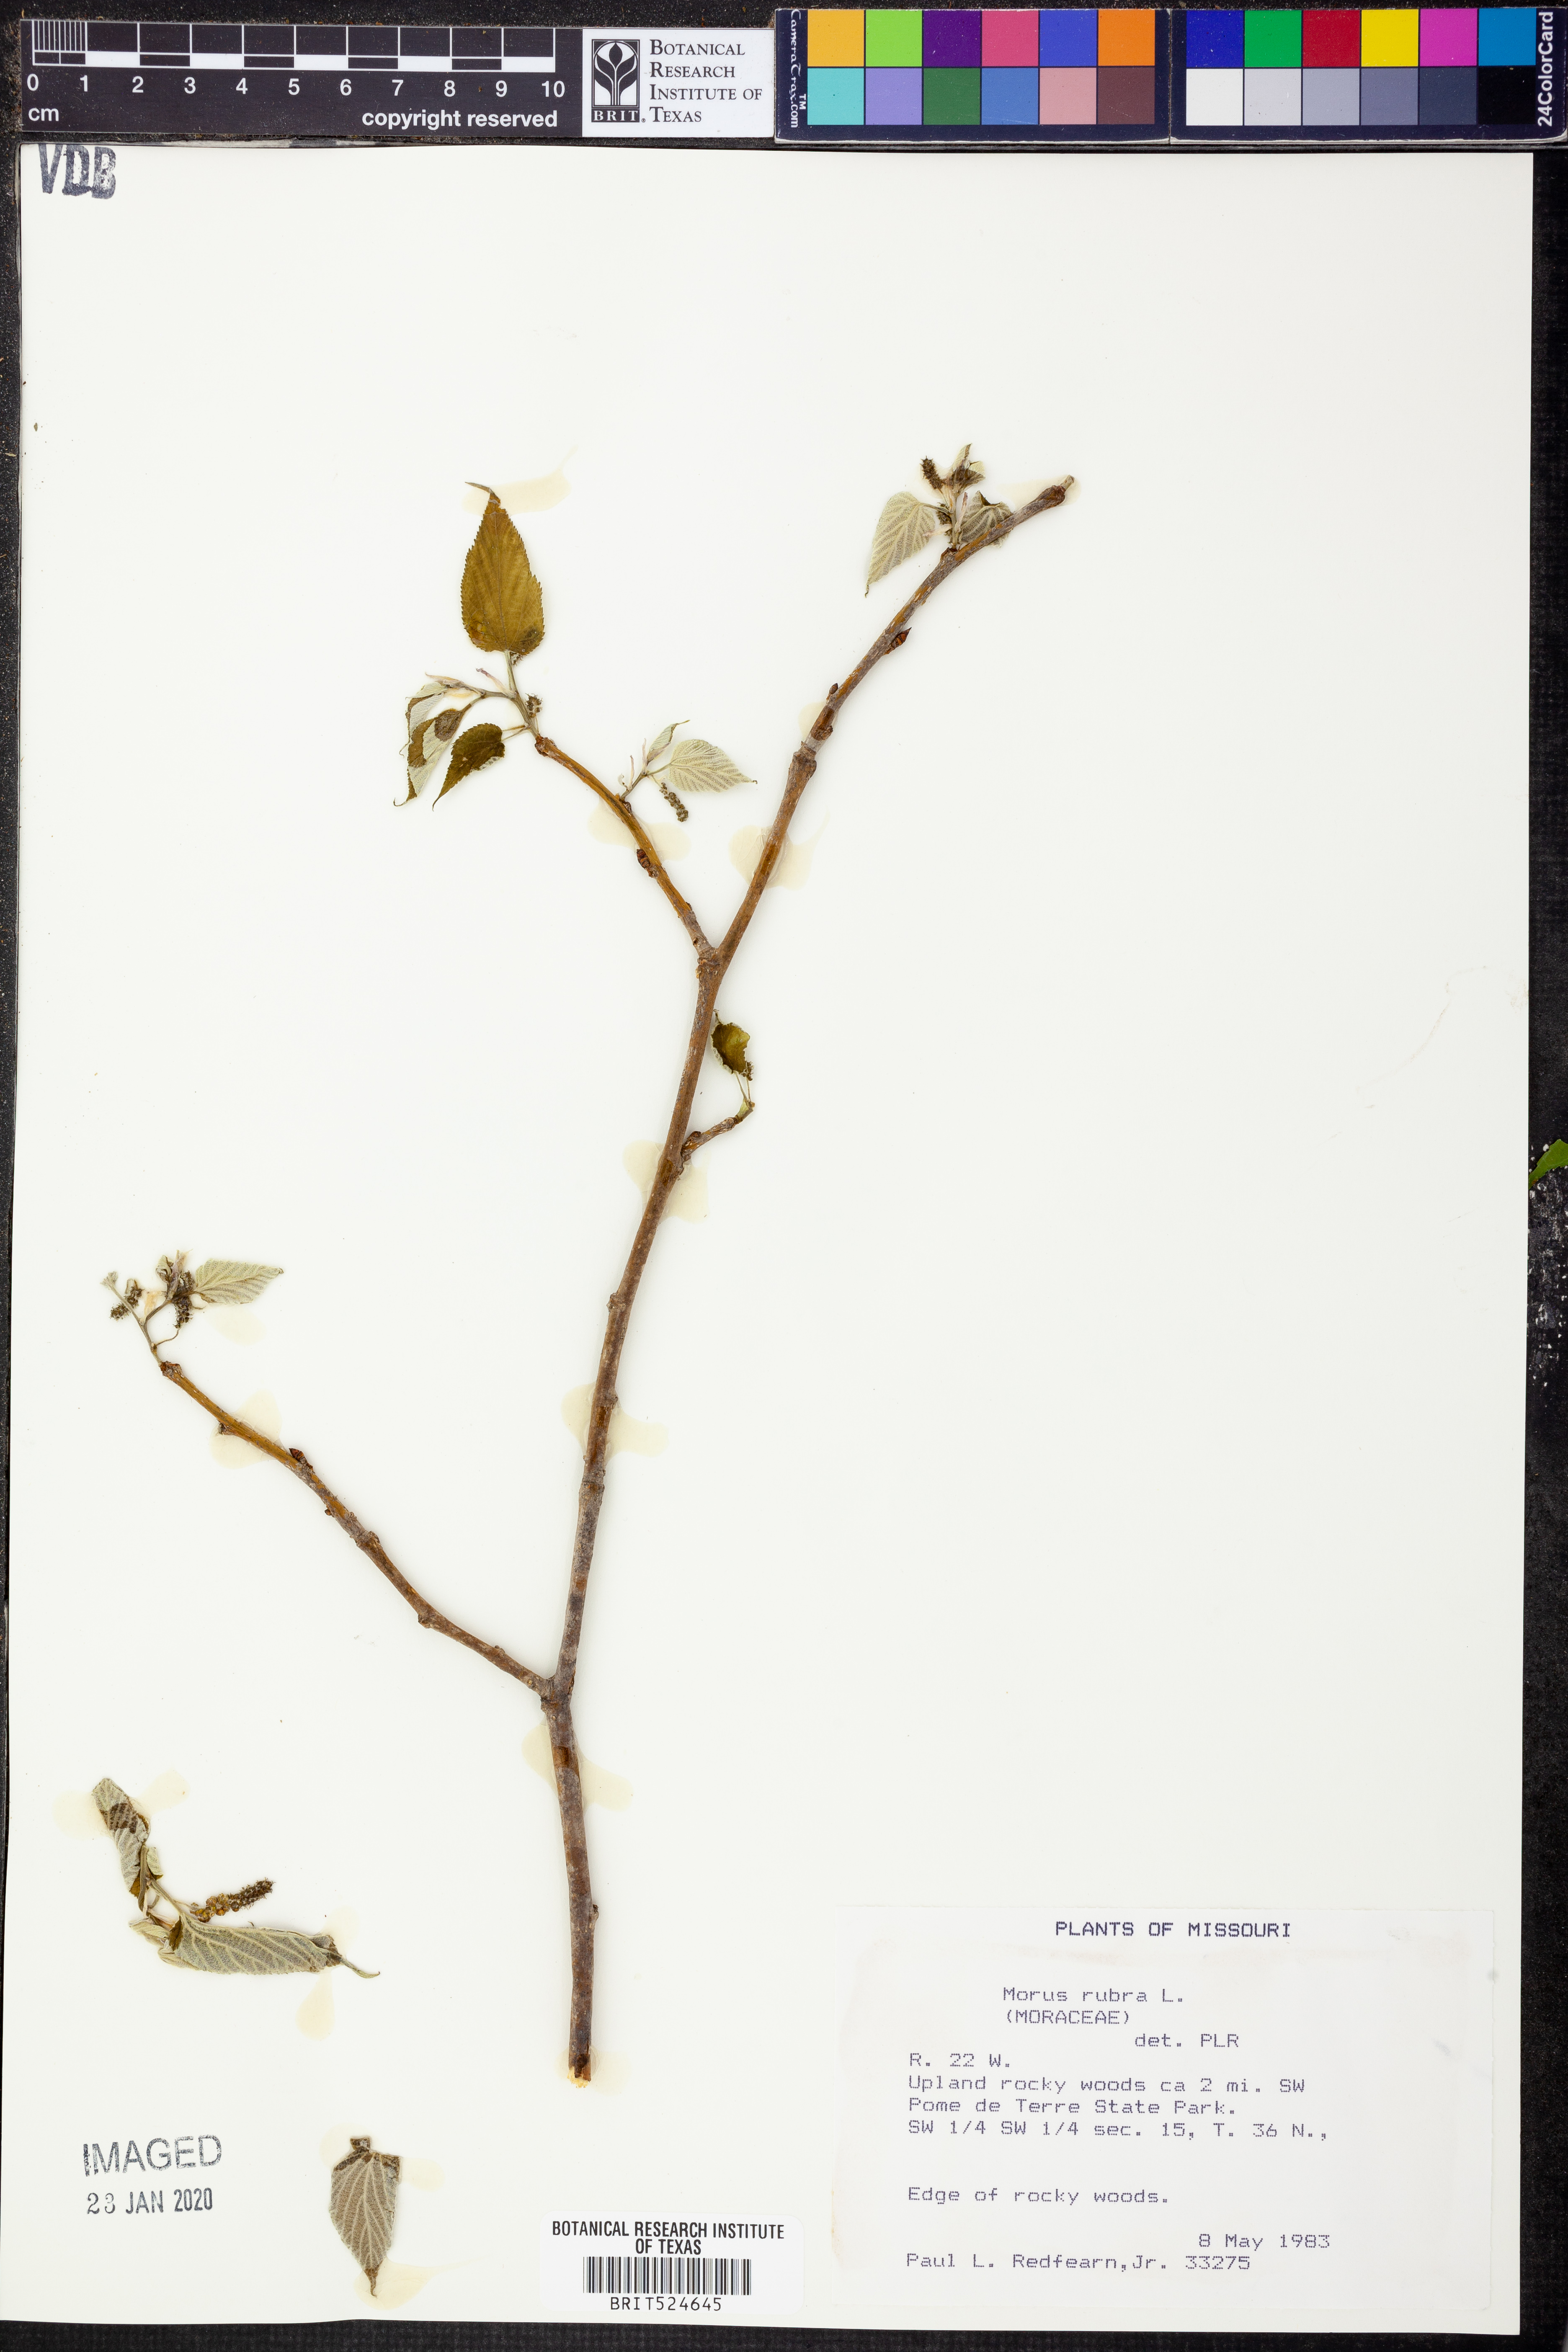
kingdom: Plantae
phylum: Tracheophyta
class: Magnoliopsida
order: Rosales
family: Moraceae
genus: Morus
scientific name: Morus rubra
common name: Red mulberry
